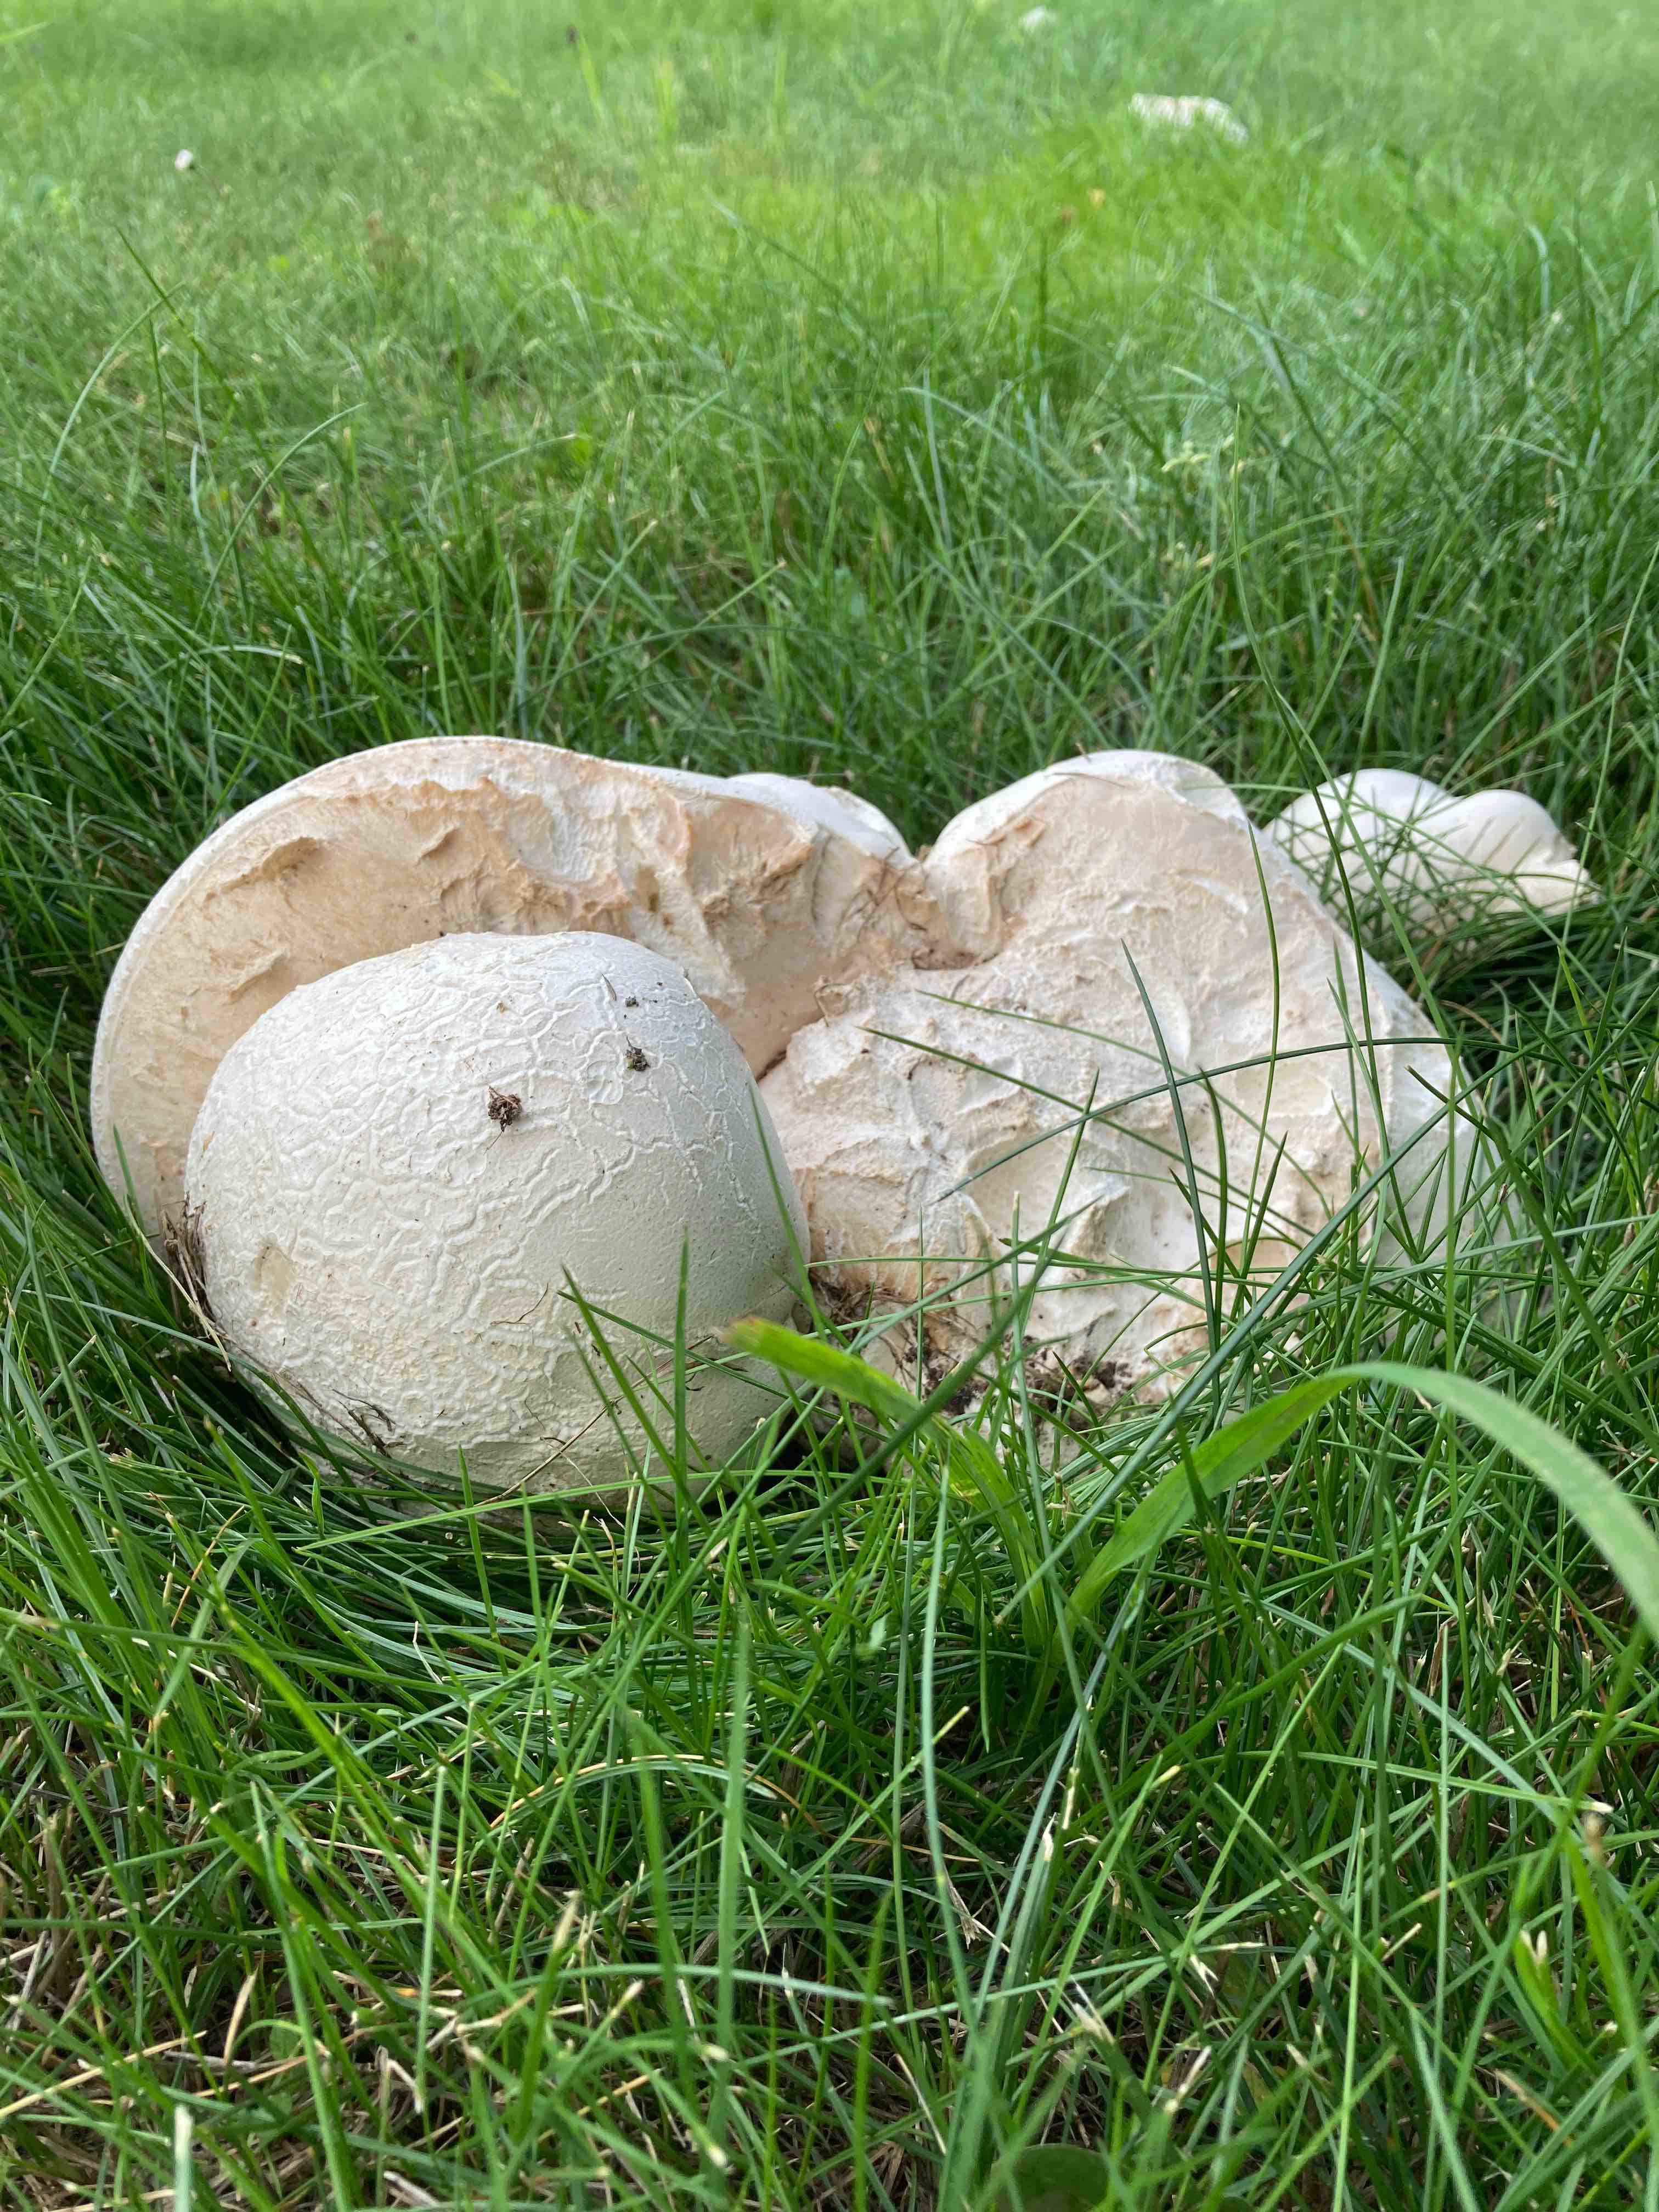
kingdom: Fungi
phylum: Basidiomycota
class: Agaricomycetes
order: Agaricales
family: Lycoperdaceae
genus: Calvatia
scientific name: Calvatia gigantea
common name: kæmpestøvbold
